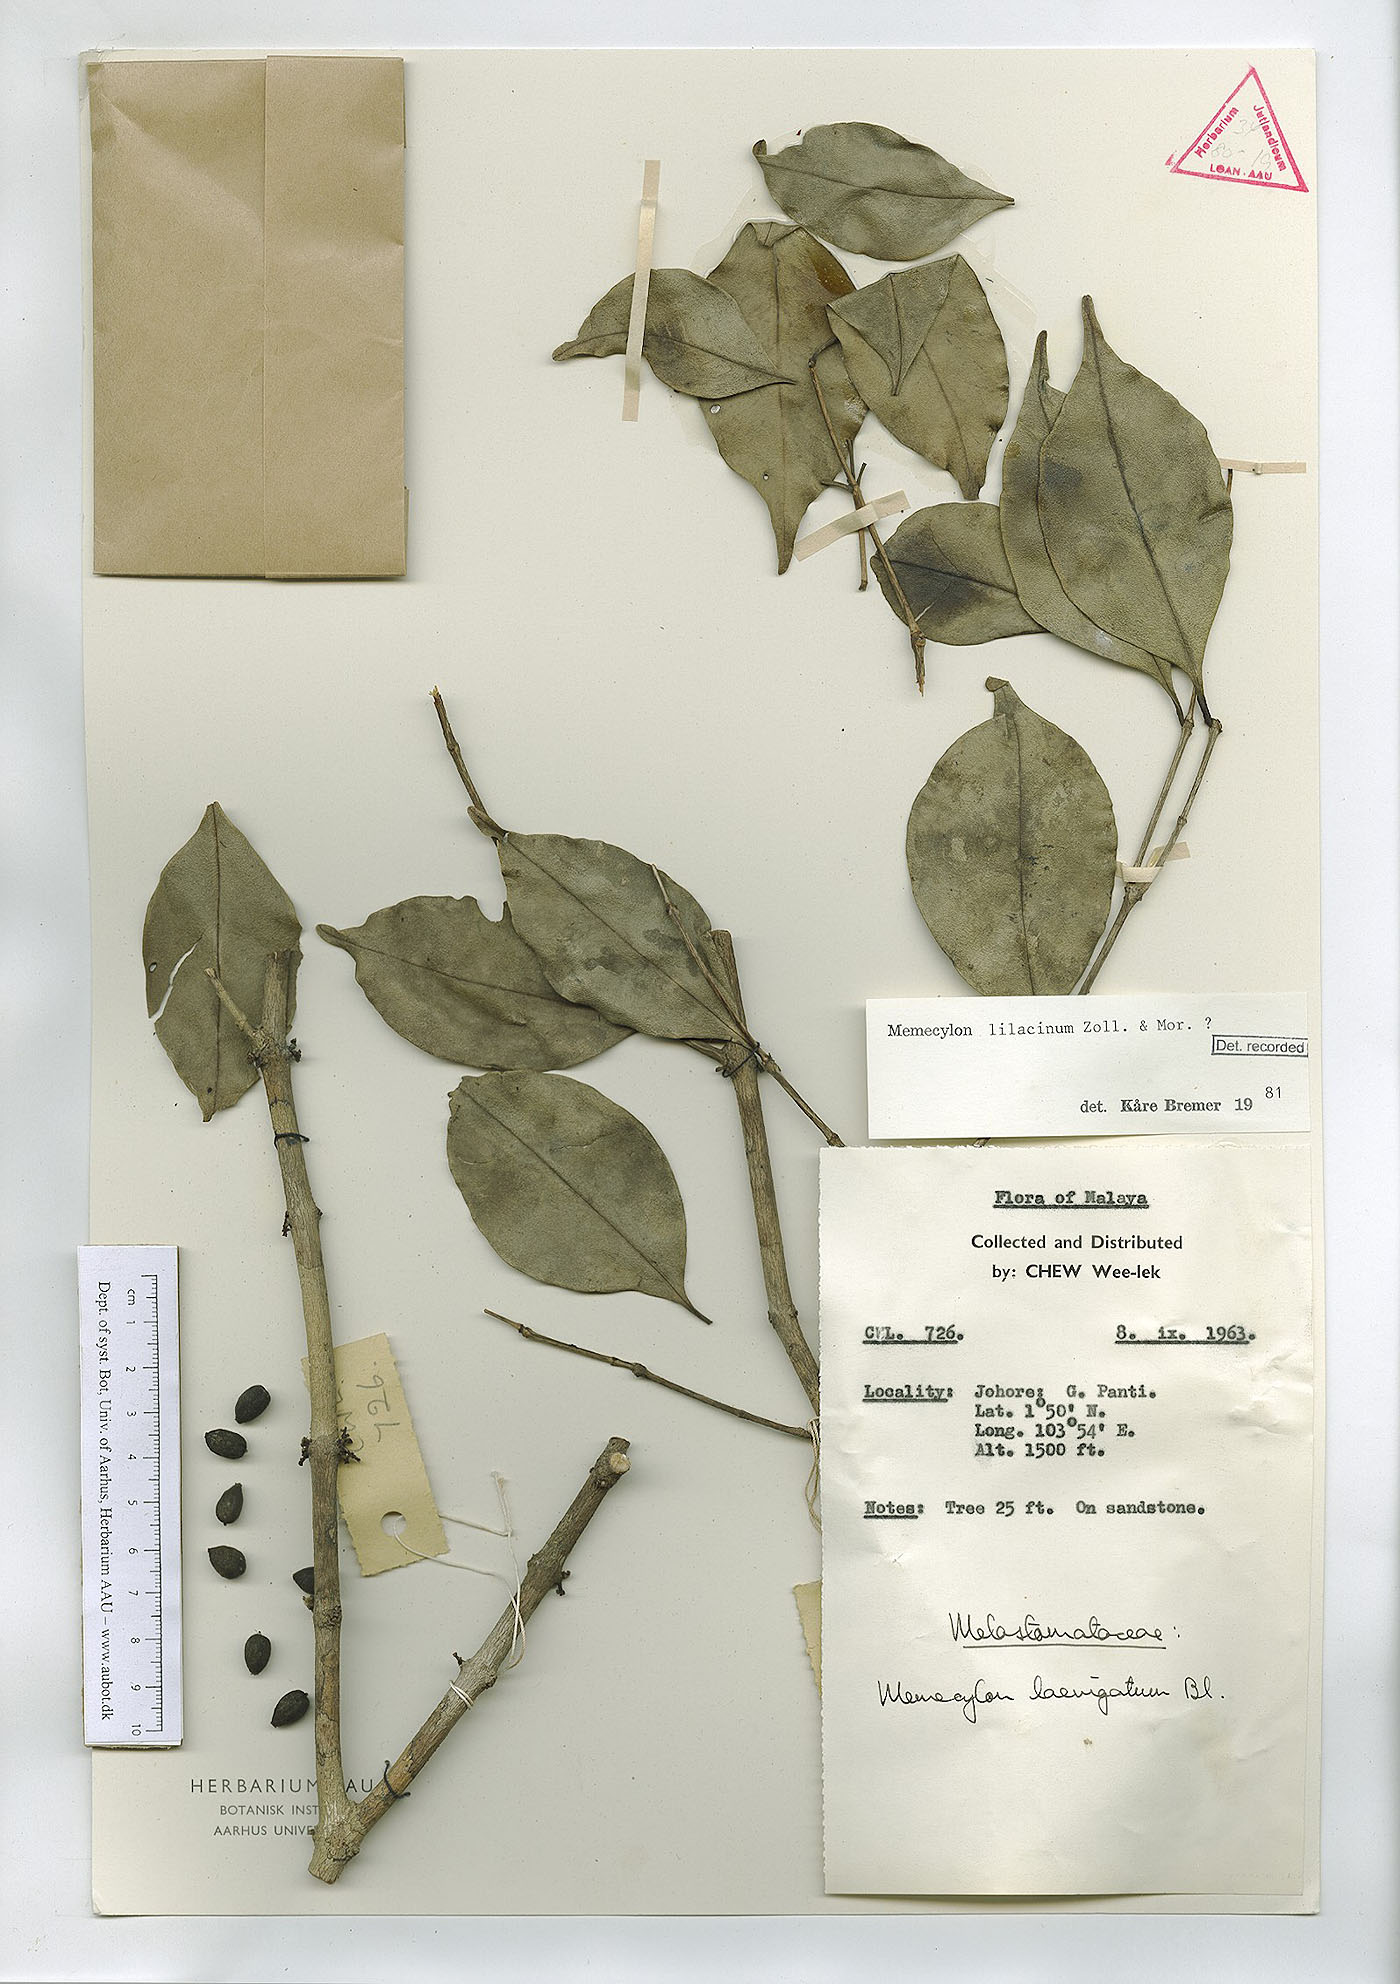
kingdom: Plantae
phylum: Tracheophyta
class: Magnoliopsida
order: Myrtales
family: Melastomataceae
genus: Memecylon
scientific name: Memecylon lilacinum
